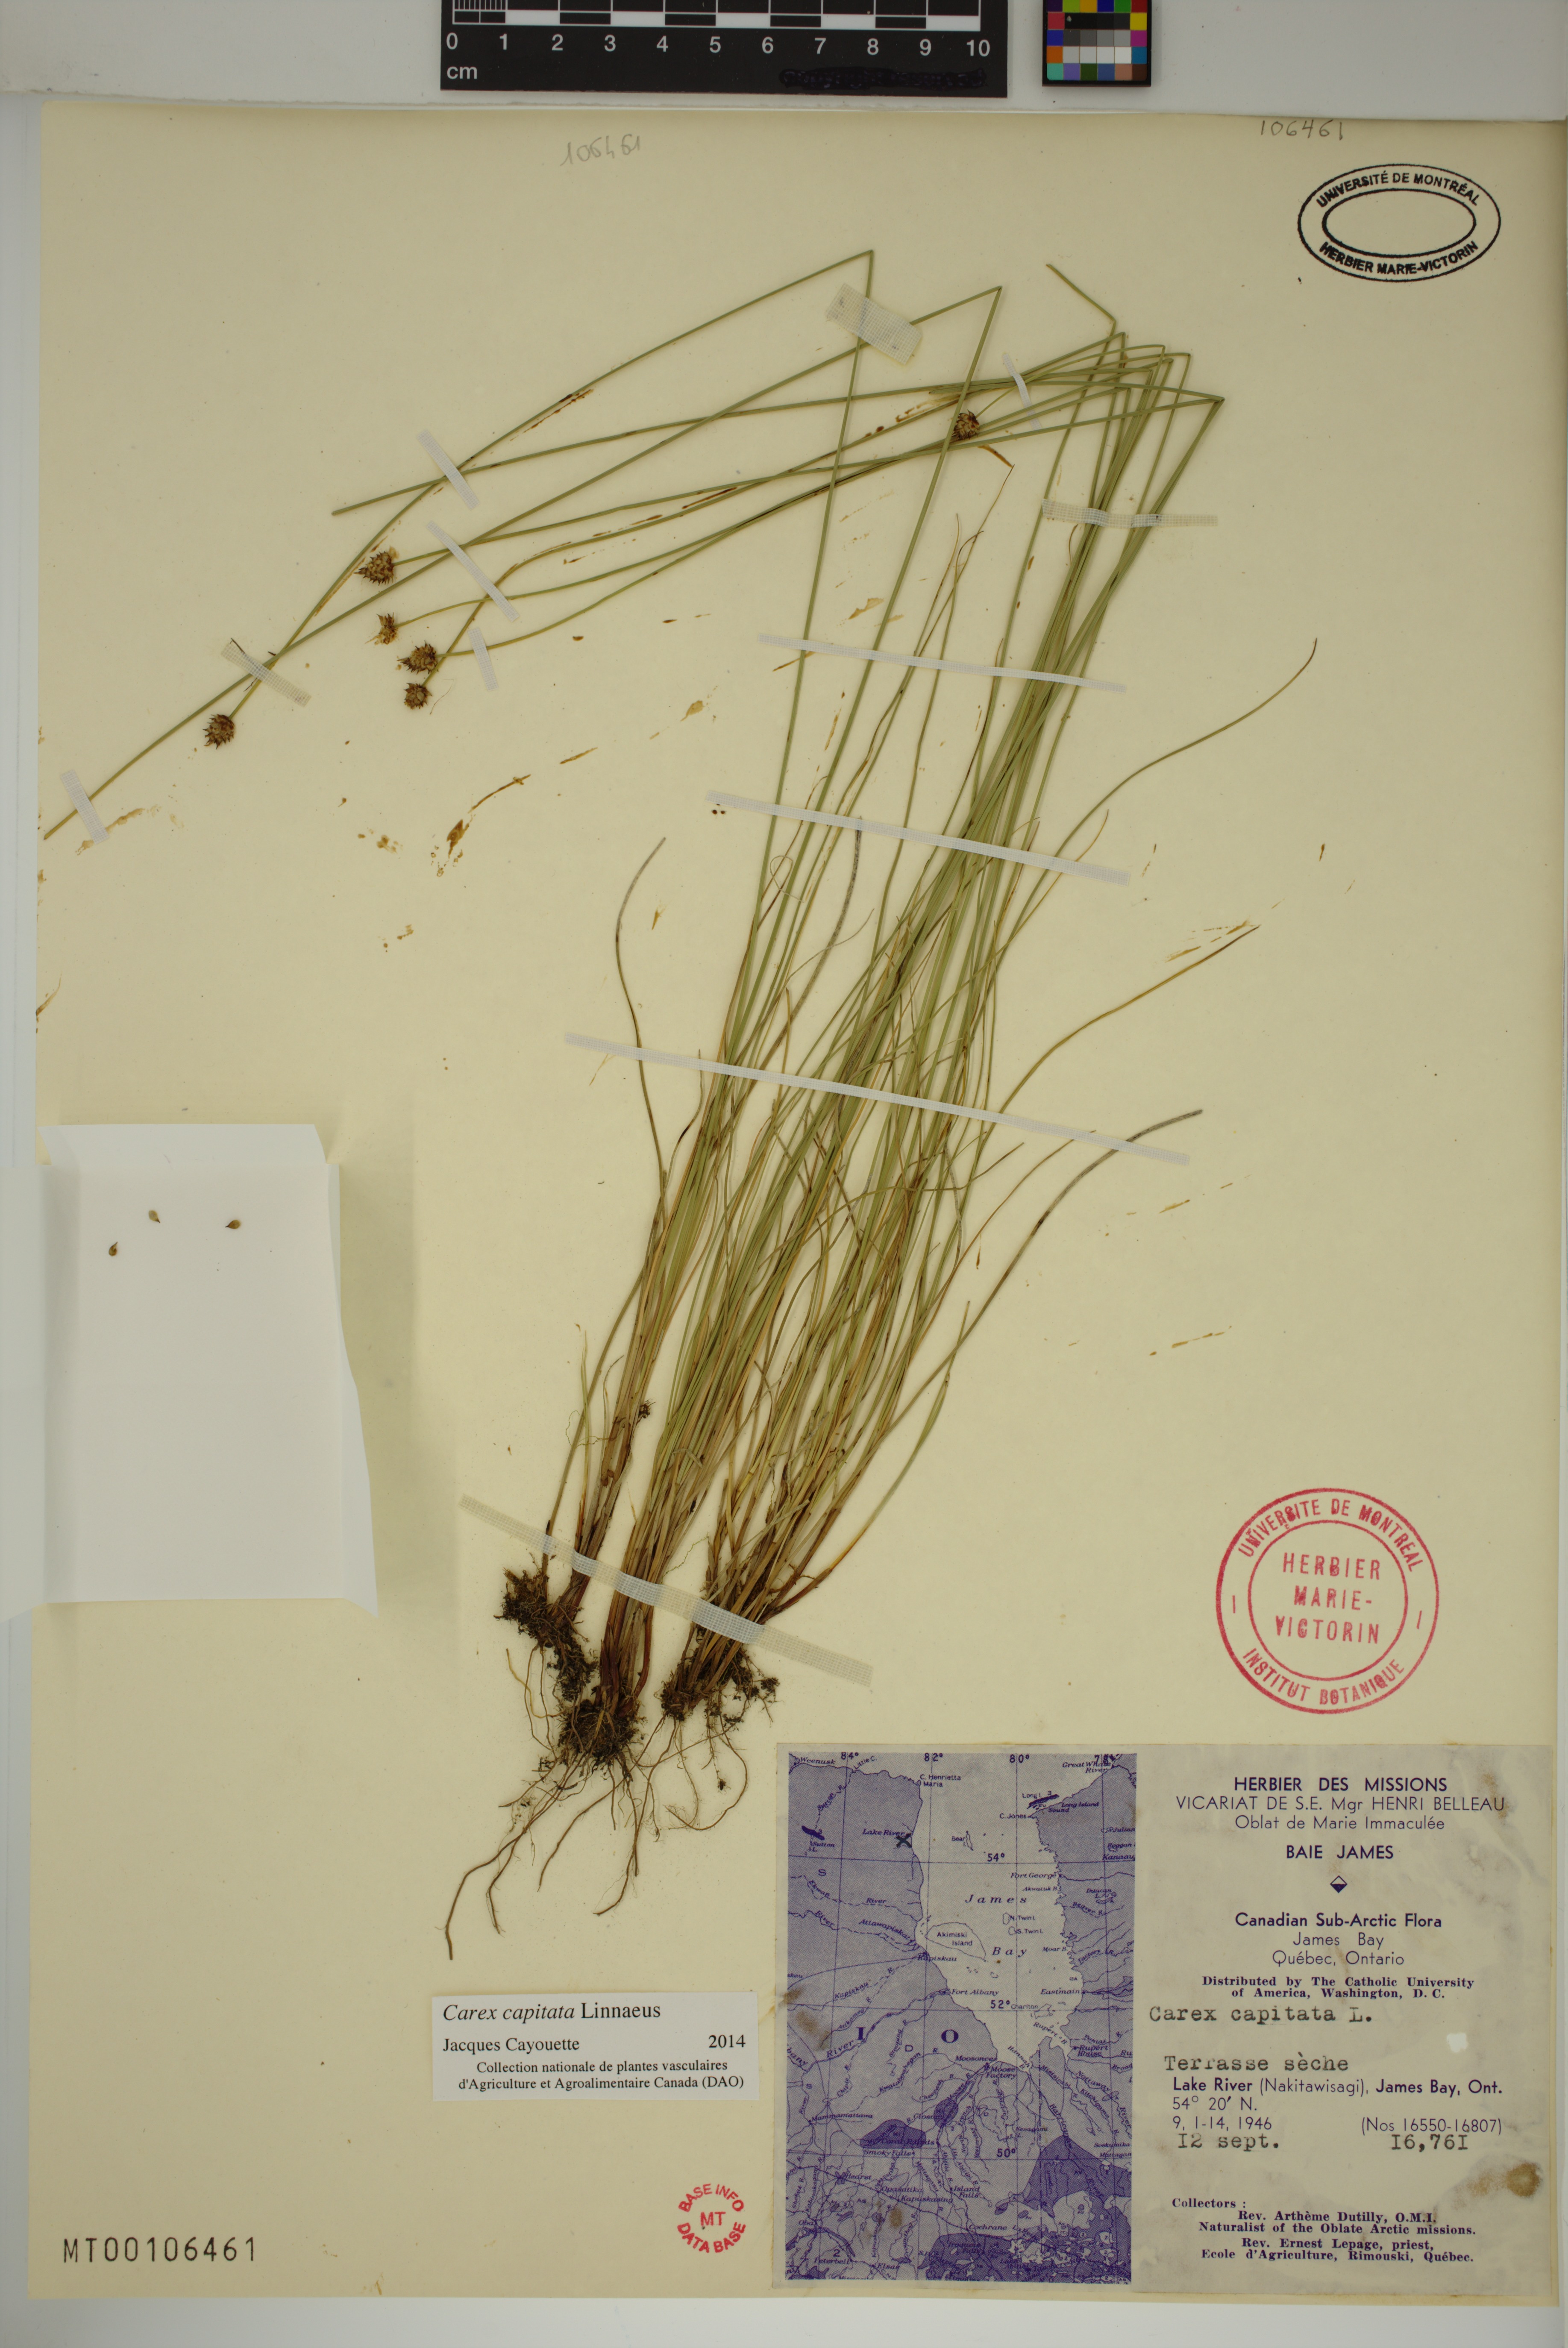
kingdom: Plantae
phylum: Tracheophyta
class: Liliopsida
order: Poales
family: Cyperaceae
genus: Carex
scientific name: Carex capitata
